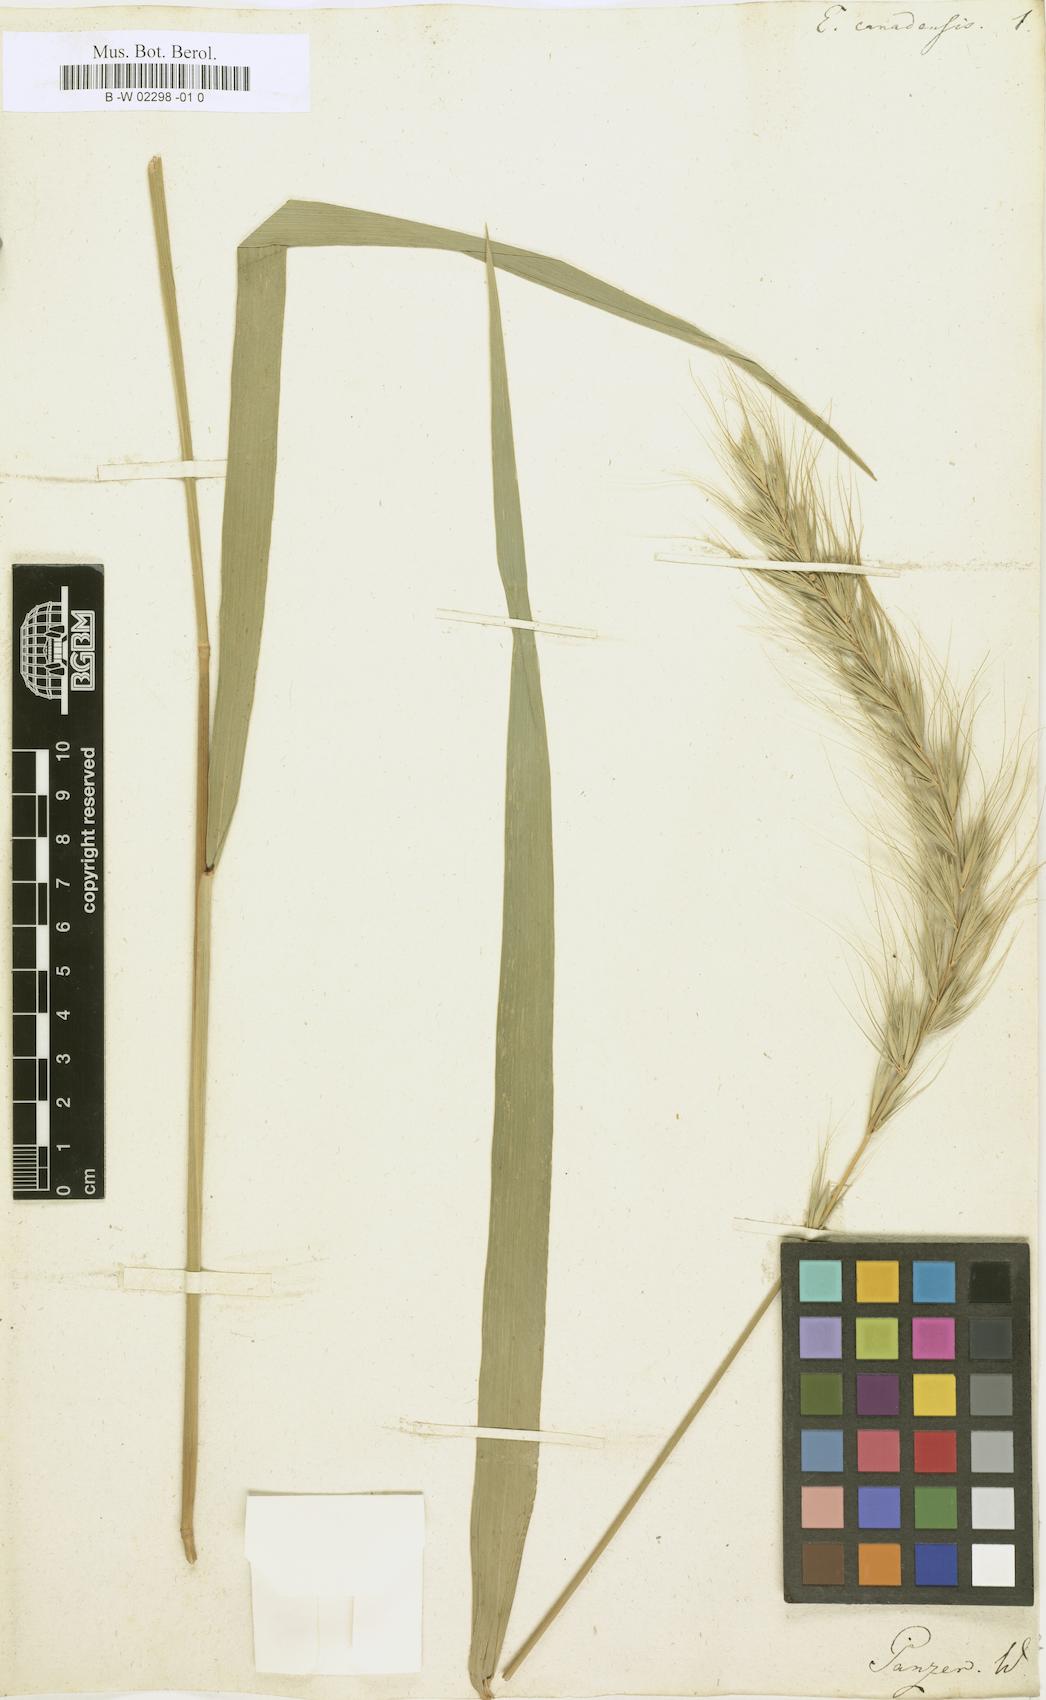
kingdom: Plantae
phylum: Tracheophyta
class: Liliopsida
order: Poales
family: Poaceae
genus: Elymus
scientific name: Elymus canadensis
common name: Canada wild rye
